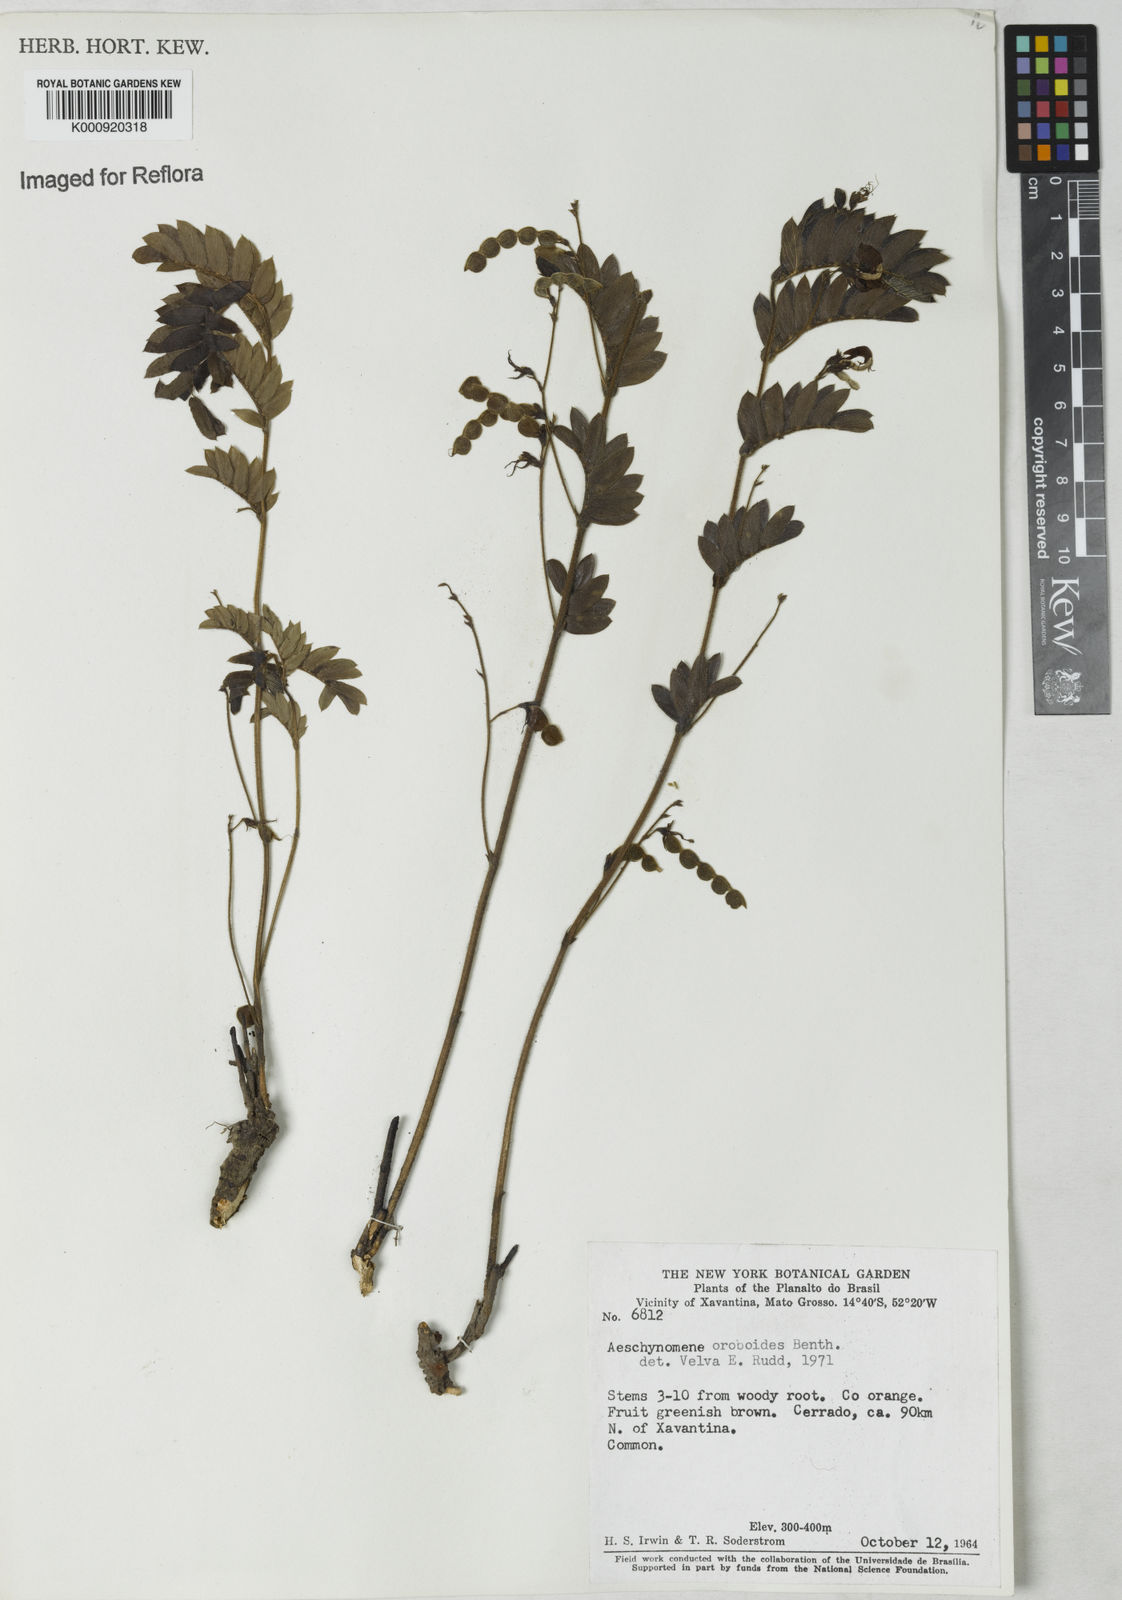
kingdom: Plantae
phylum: Tracheophyta
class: Magnoliopsida
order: Fabales
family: Fabaceae
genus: Ctenodon
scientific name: Ctenodon oroboides
